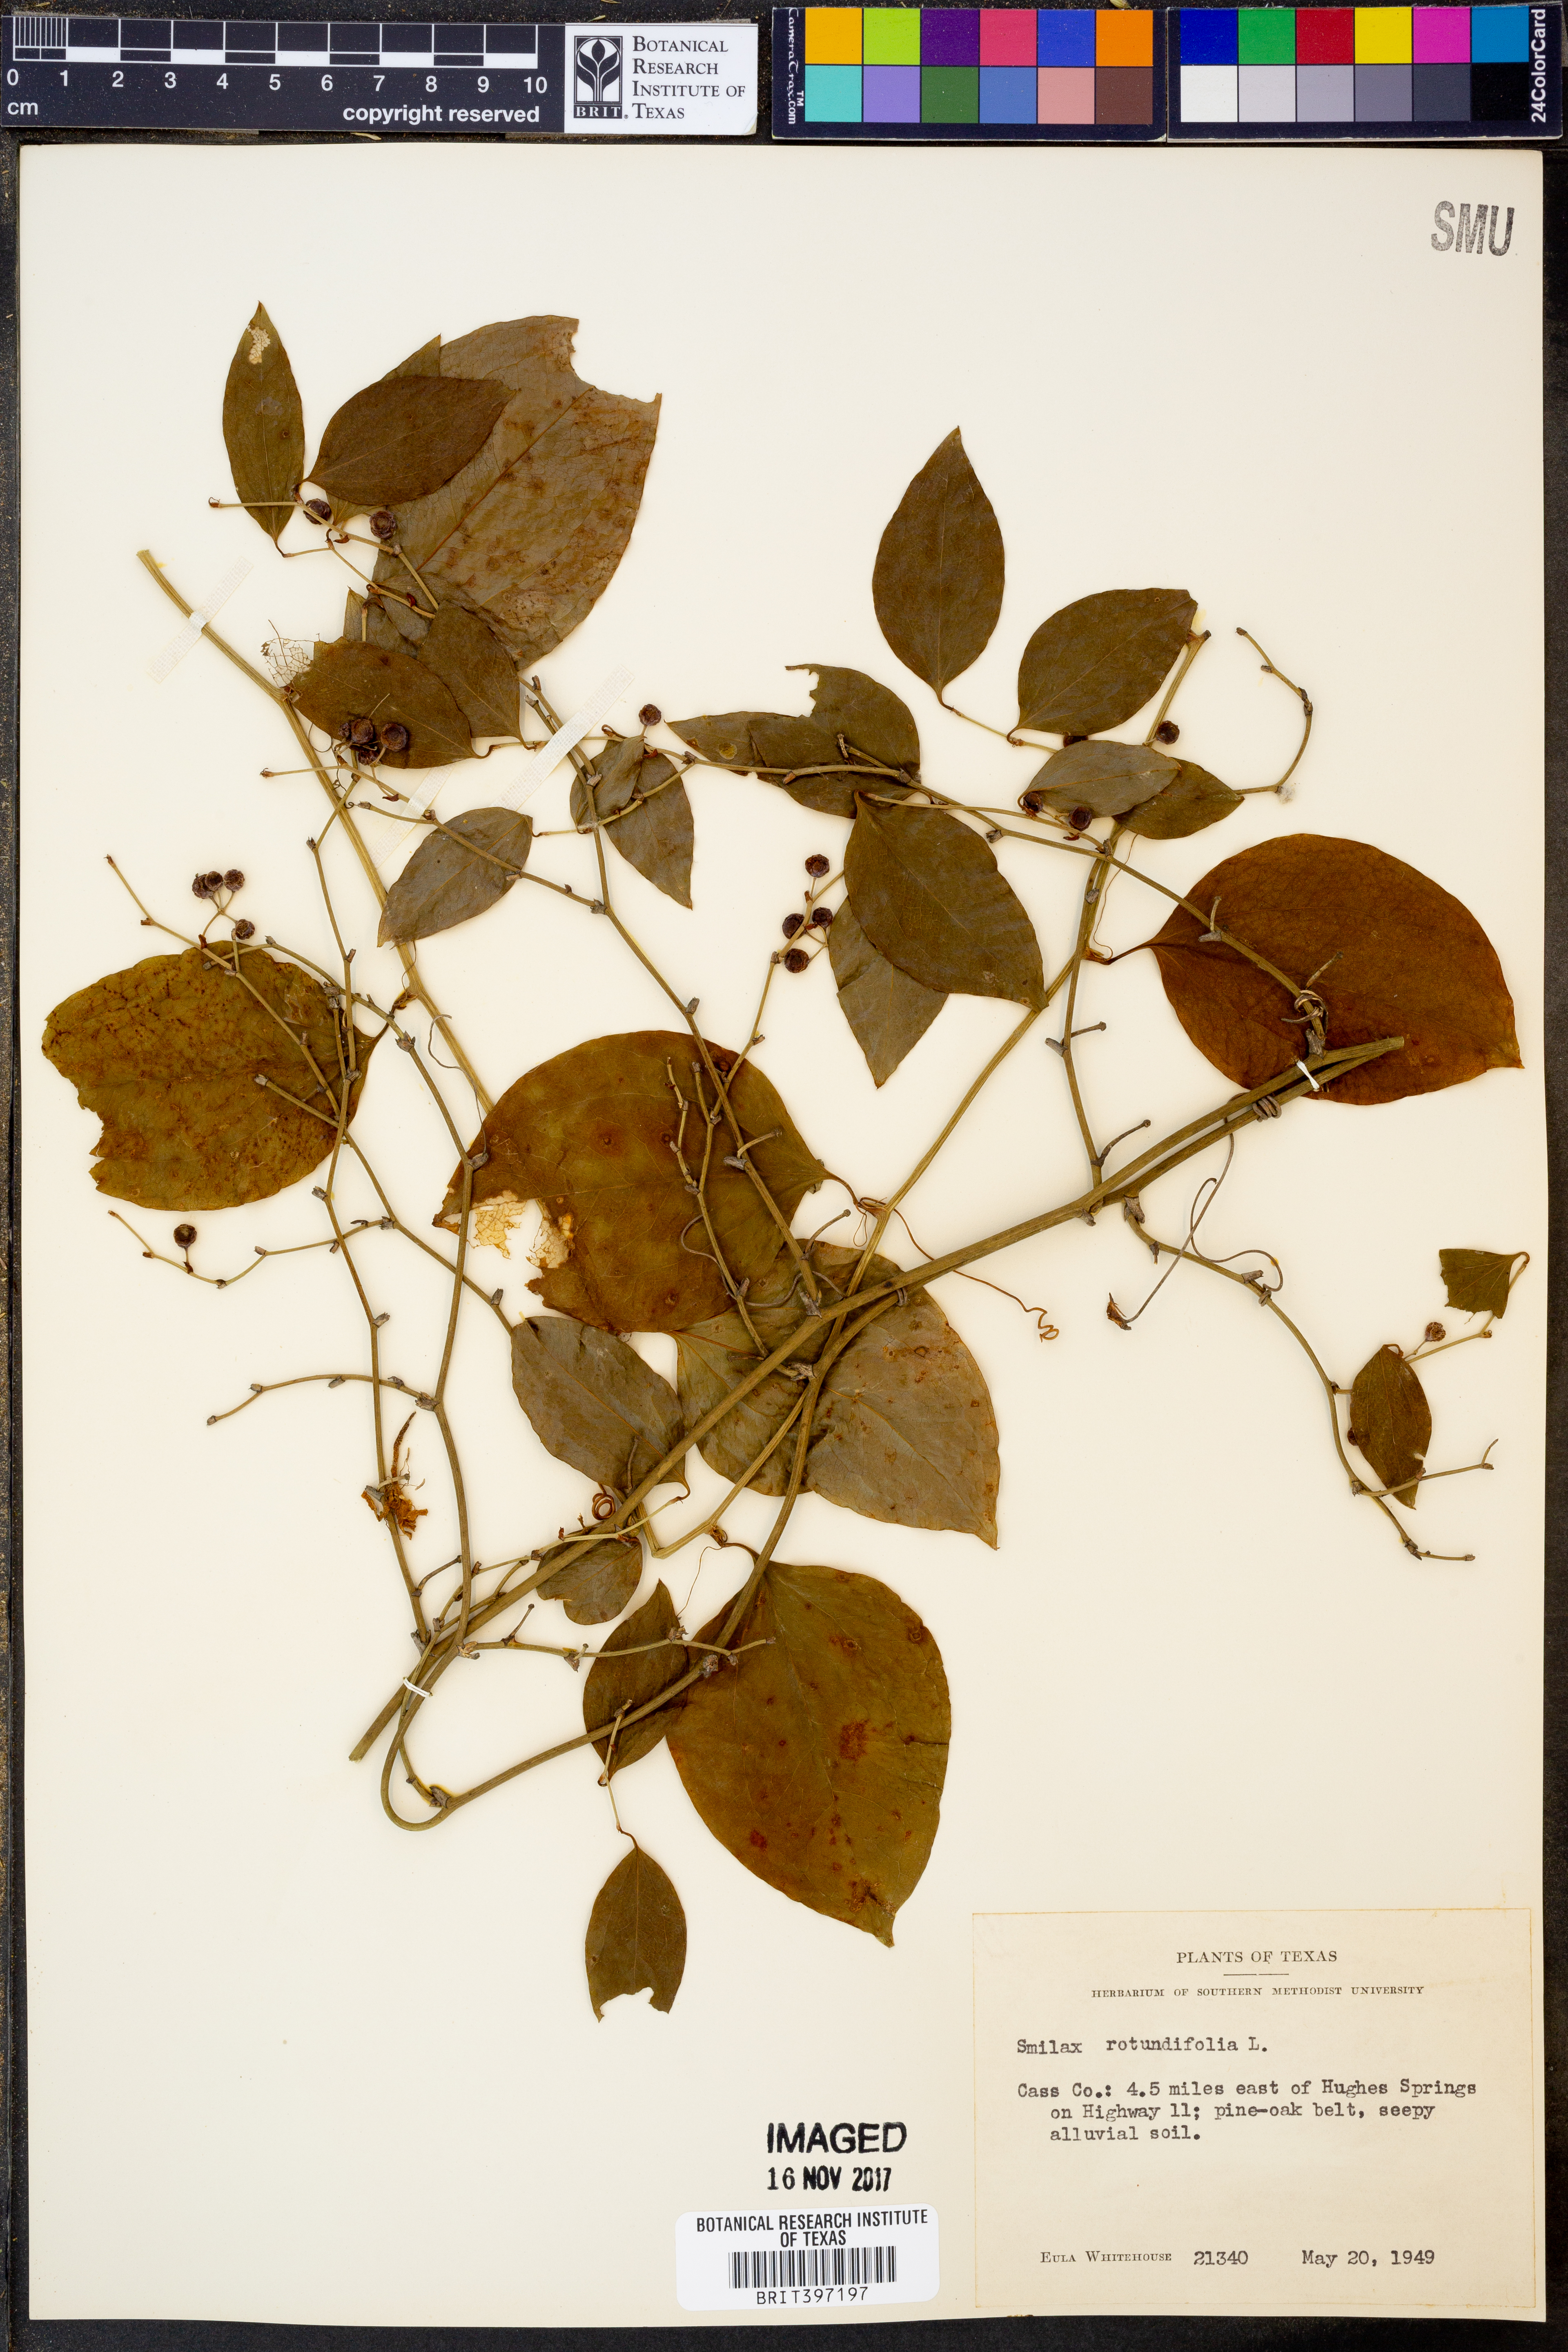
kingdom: Plantae
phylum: Tracheophyta
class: Liliopsida
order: Liliales
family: Smilacaceae
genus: Smilax
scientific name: Smilax rotundifolia
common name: Bullbriar
